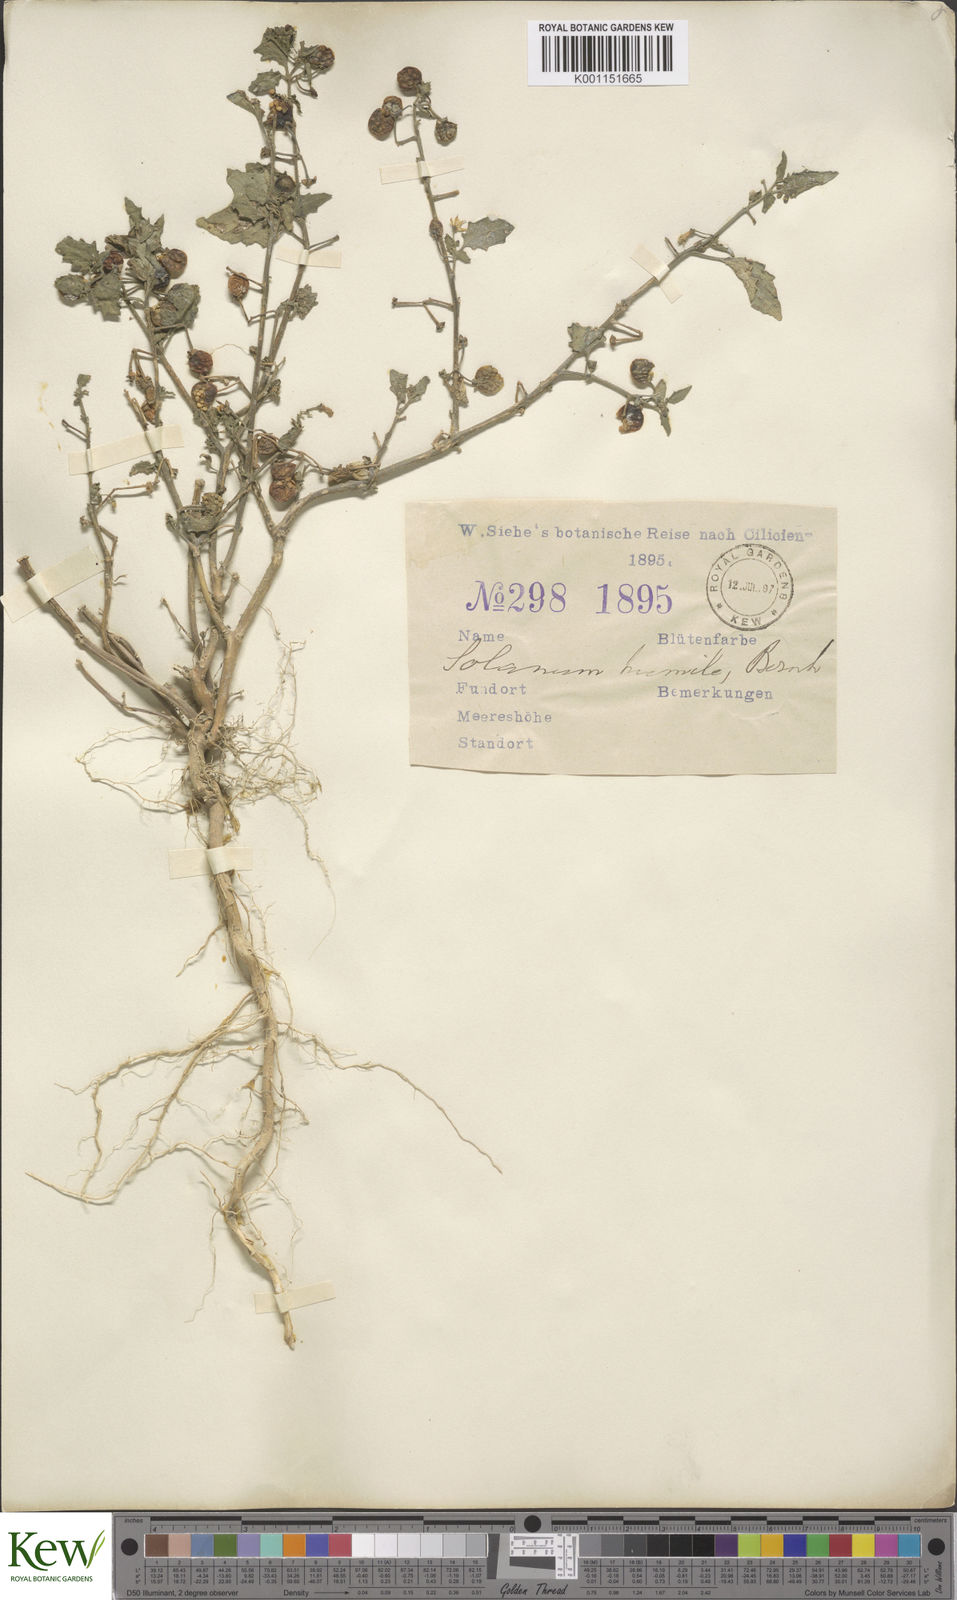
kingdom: Plantae
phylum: Tracheophyta
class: Magnoliopsida
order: Solanales
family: Solanaceae
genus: Solanum
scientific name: Solanum
